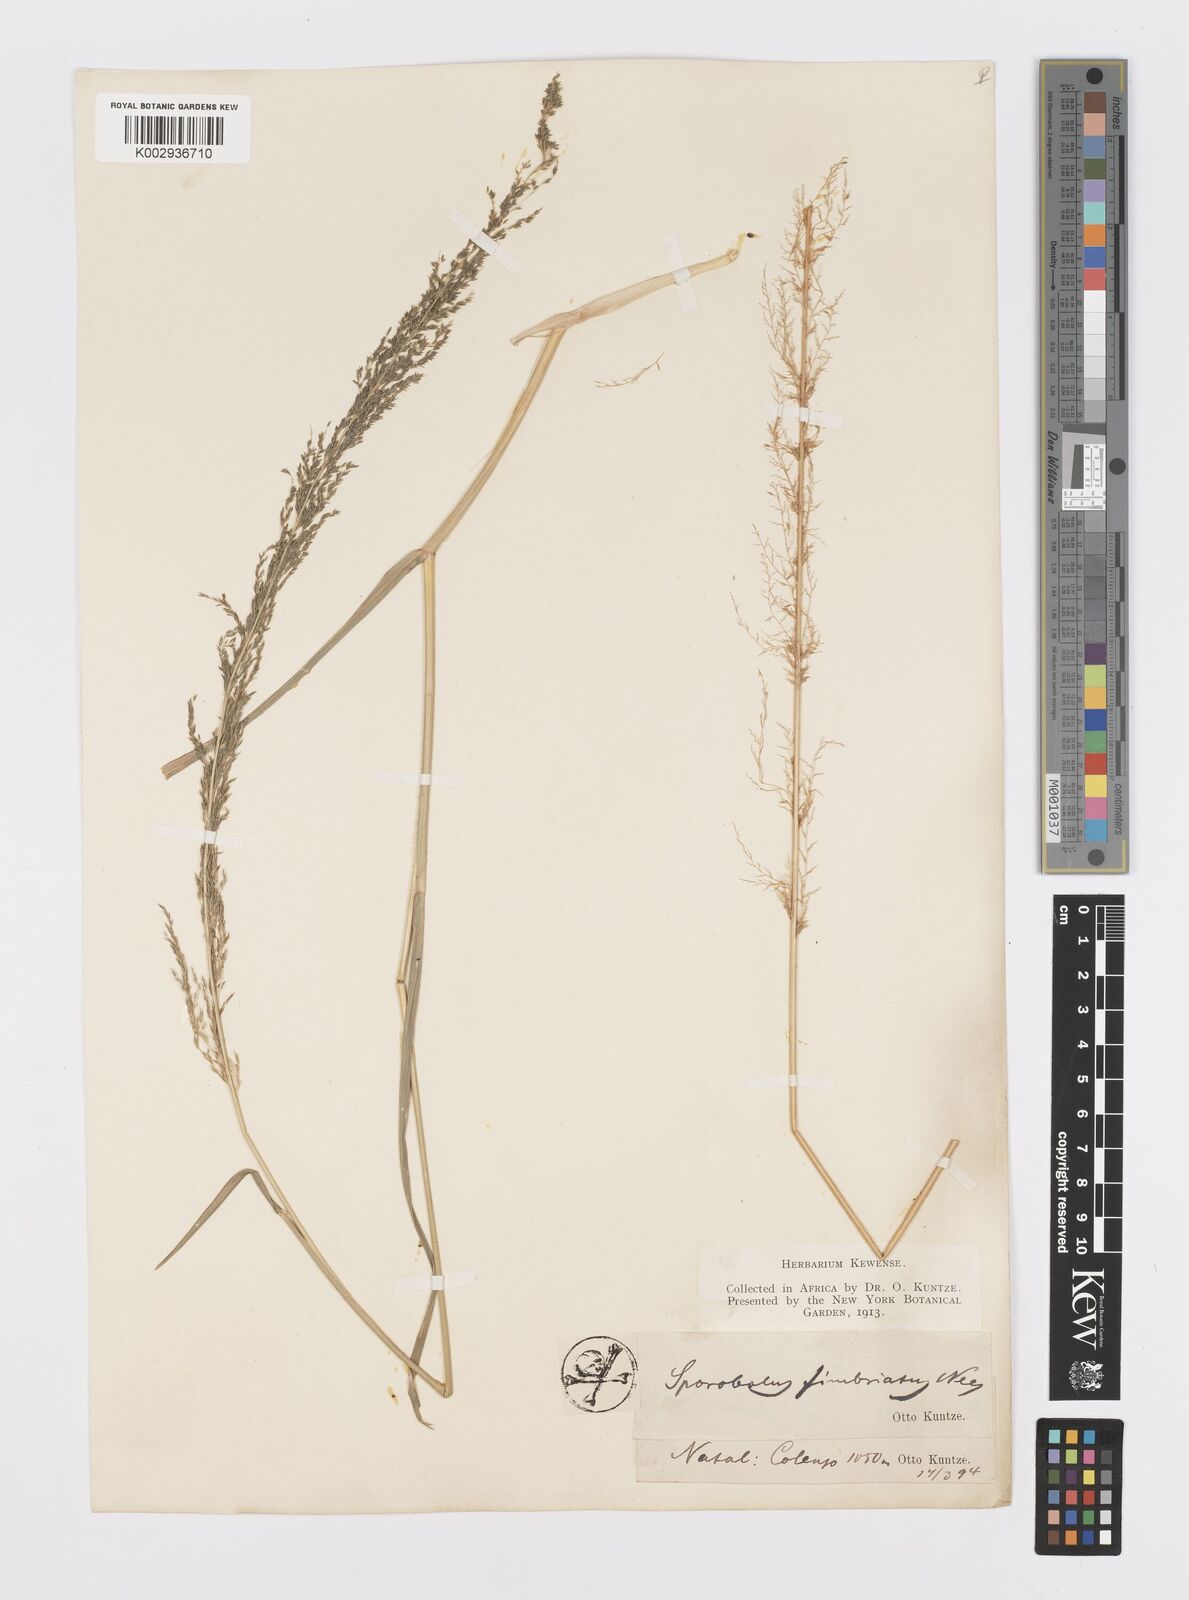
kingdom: Plantae
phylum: Tracheophyta
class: Liliopsida
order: Poales
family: Poaceae
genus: Sporobolus
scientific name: Sporobolus fimbriatus
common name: Fringed dropseed
